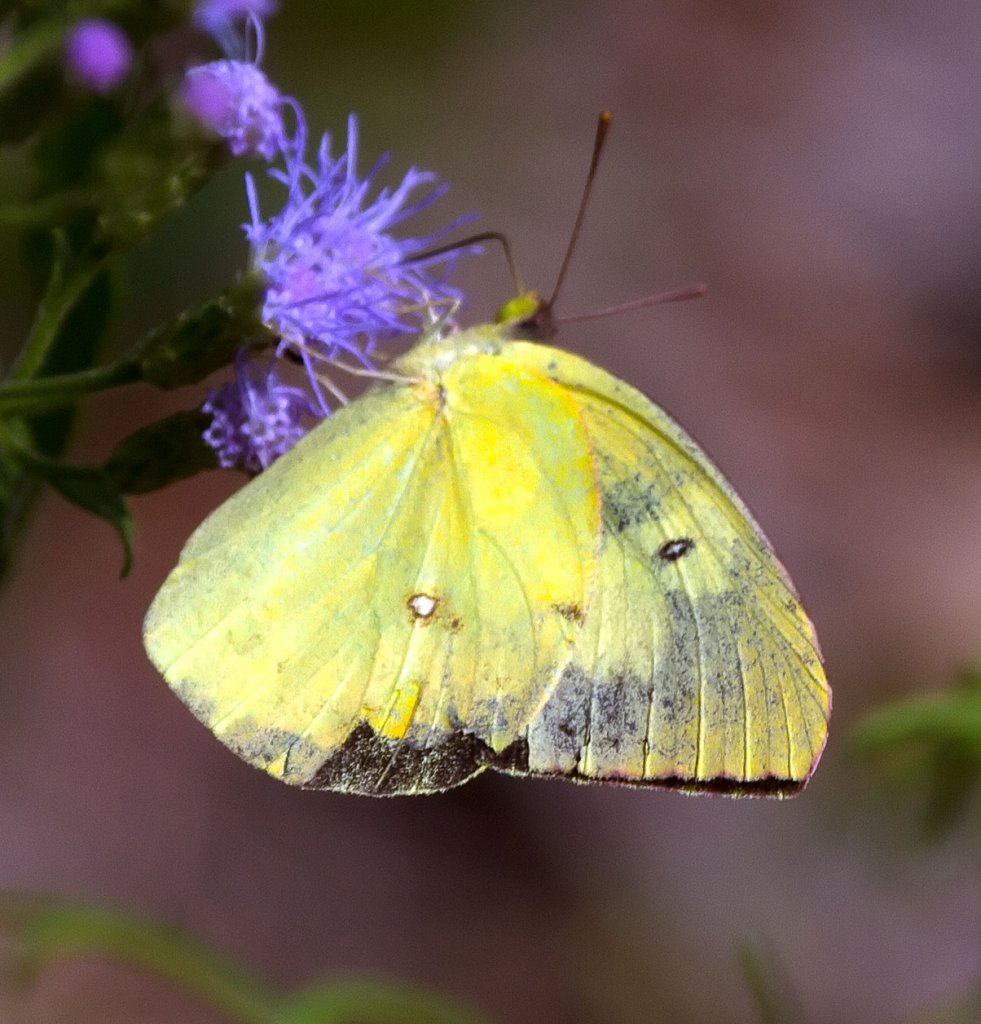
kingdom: Animalia
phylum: Arthropoda
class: Insecta
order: Lepidoptera
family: Pieridae
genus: Zerene
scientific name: Zerene cesonia
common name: Southern Dogface
